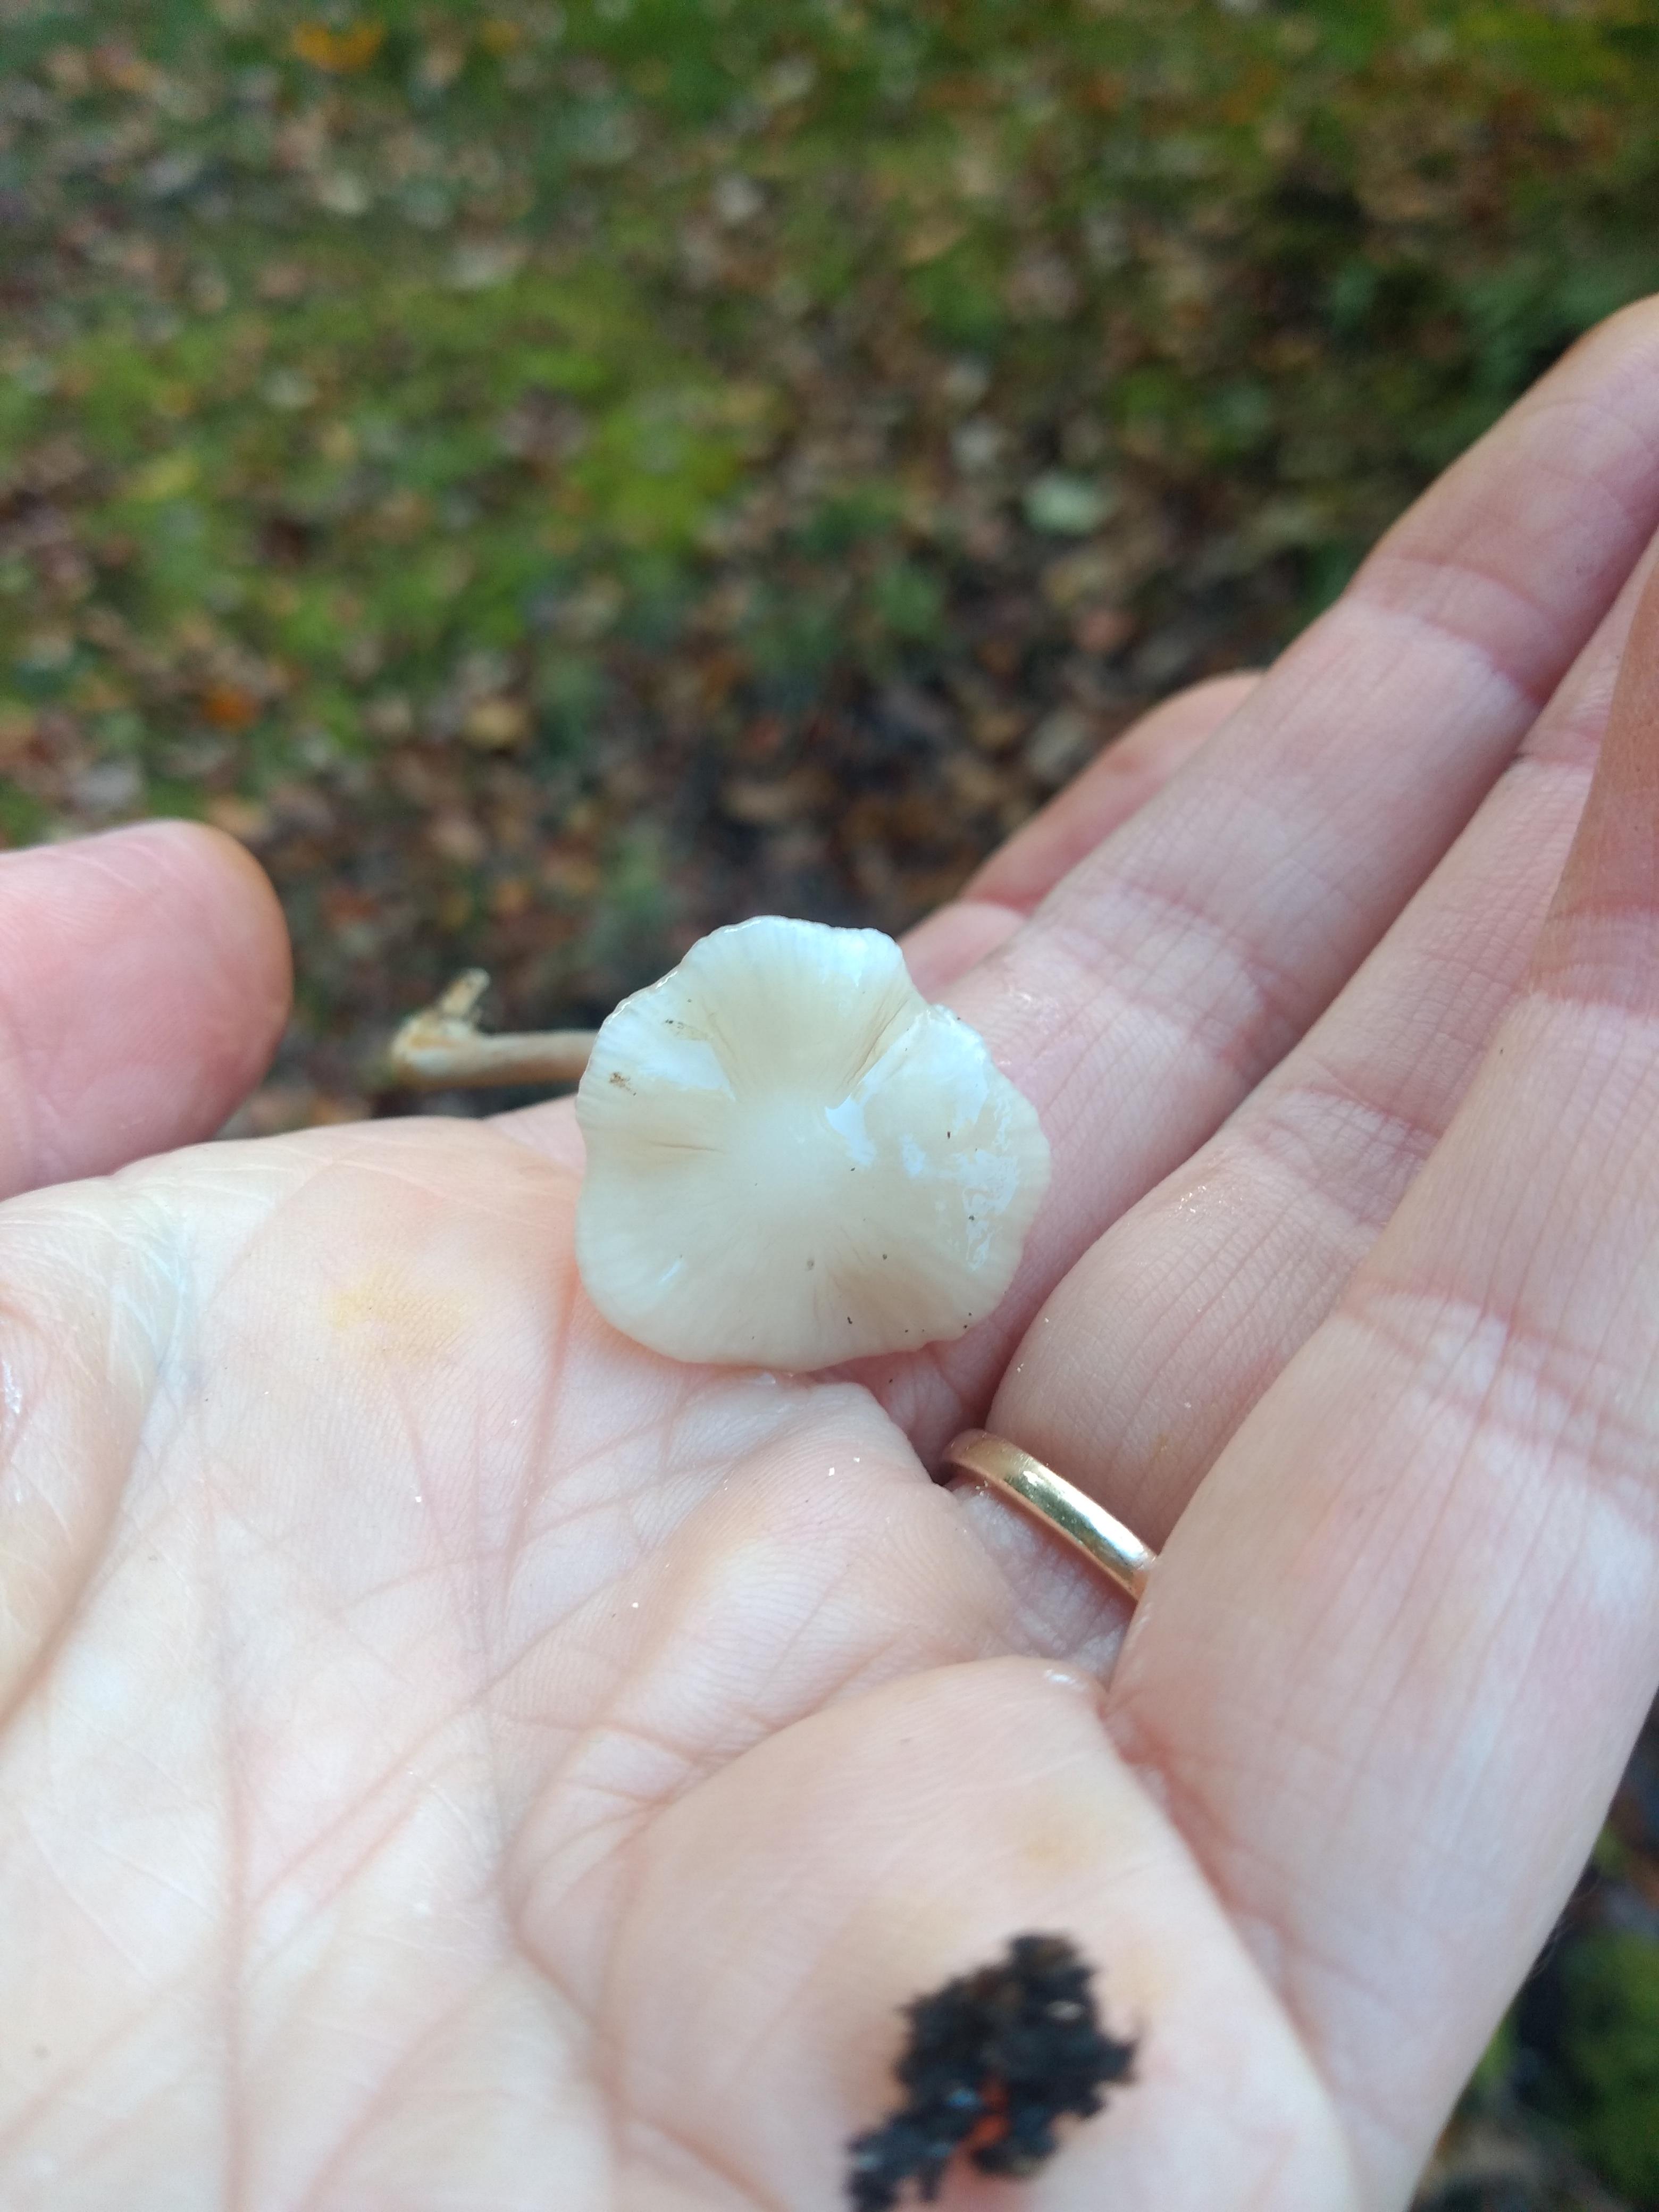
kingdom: Fungi
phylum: Basidiomycota
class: Agaricomycetes
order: Agaricales
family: Physalacriaceae
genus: Hymenopellis
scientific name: Hymenopellis radicata
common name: almindelig pælerodshat
